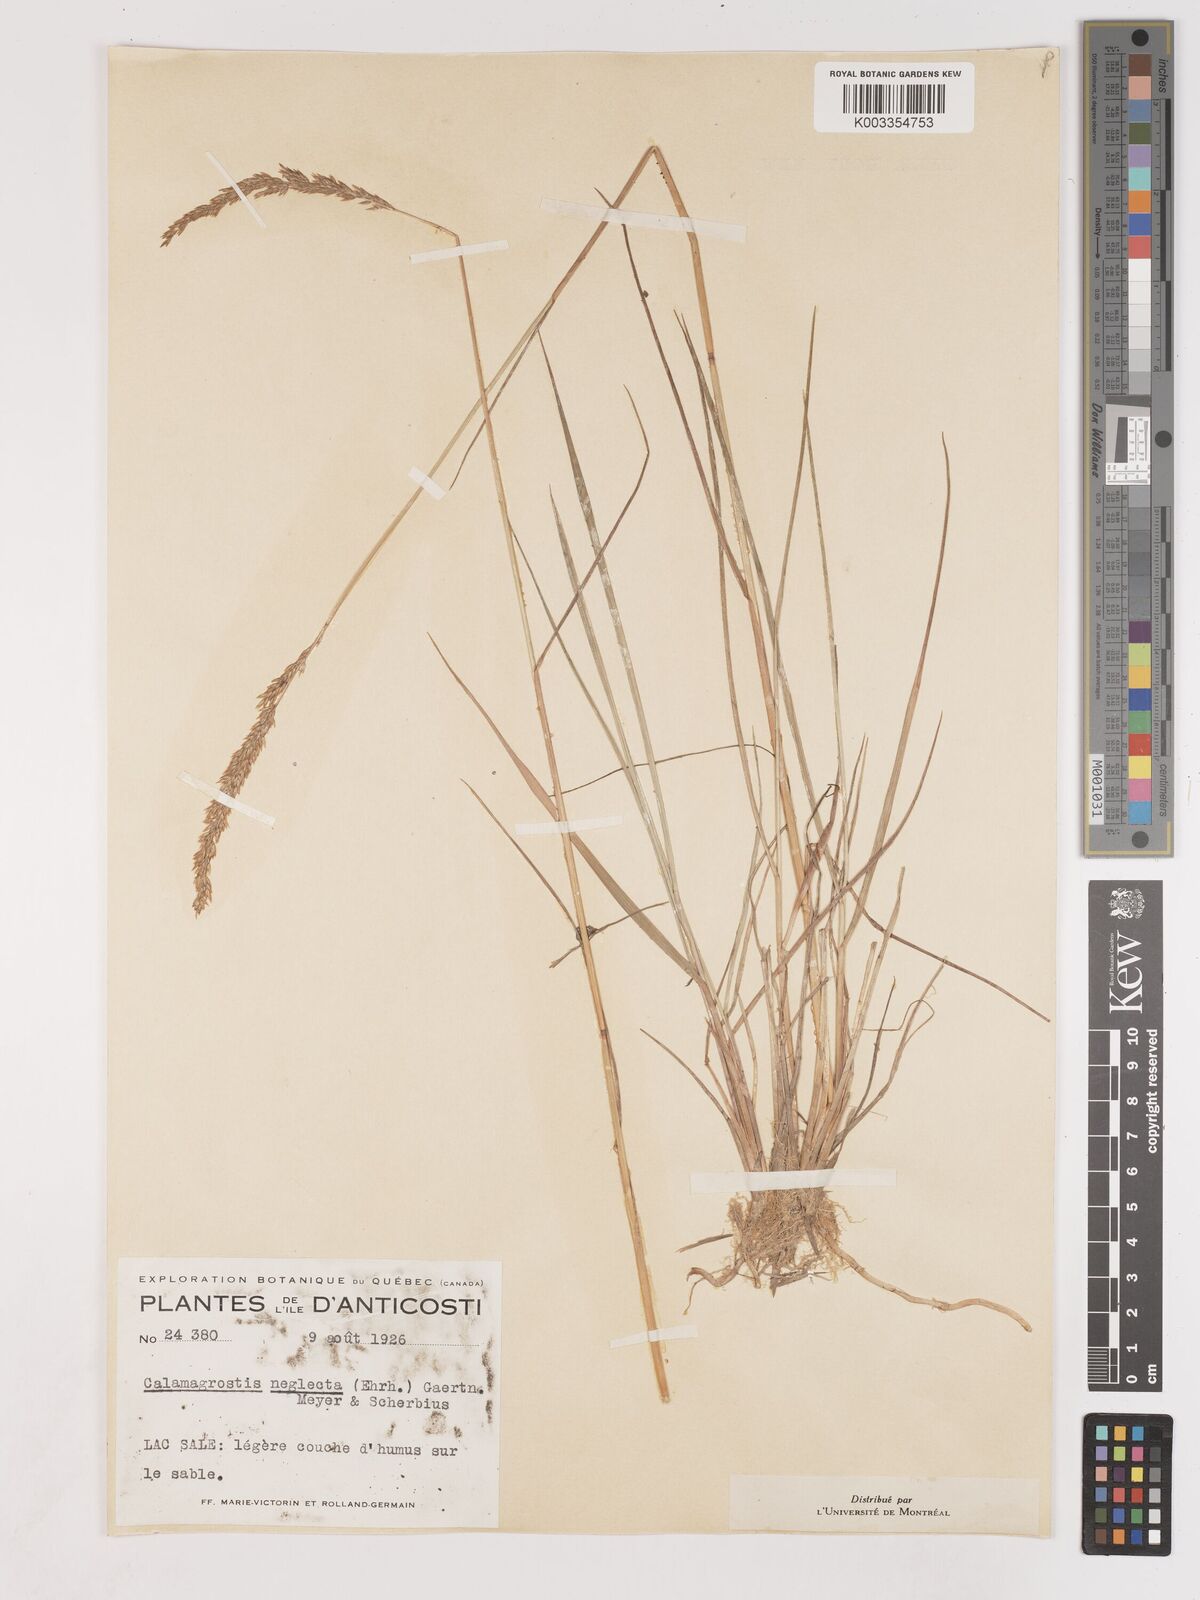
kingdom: Plantae
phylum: Tracheophyta
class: Liliopsida
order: Poales
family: Poaceae
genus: Cinnagrostis
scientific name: Cinnagrostis recta
